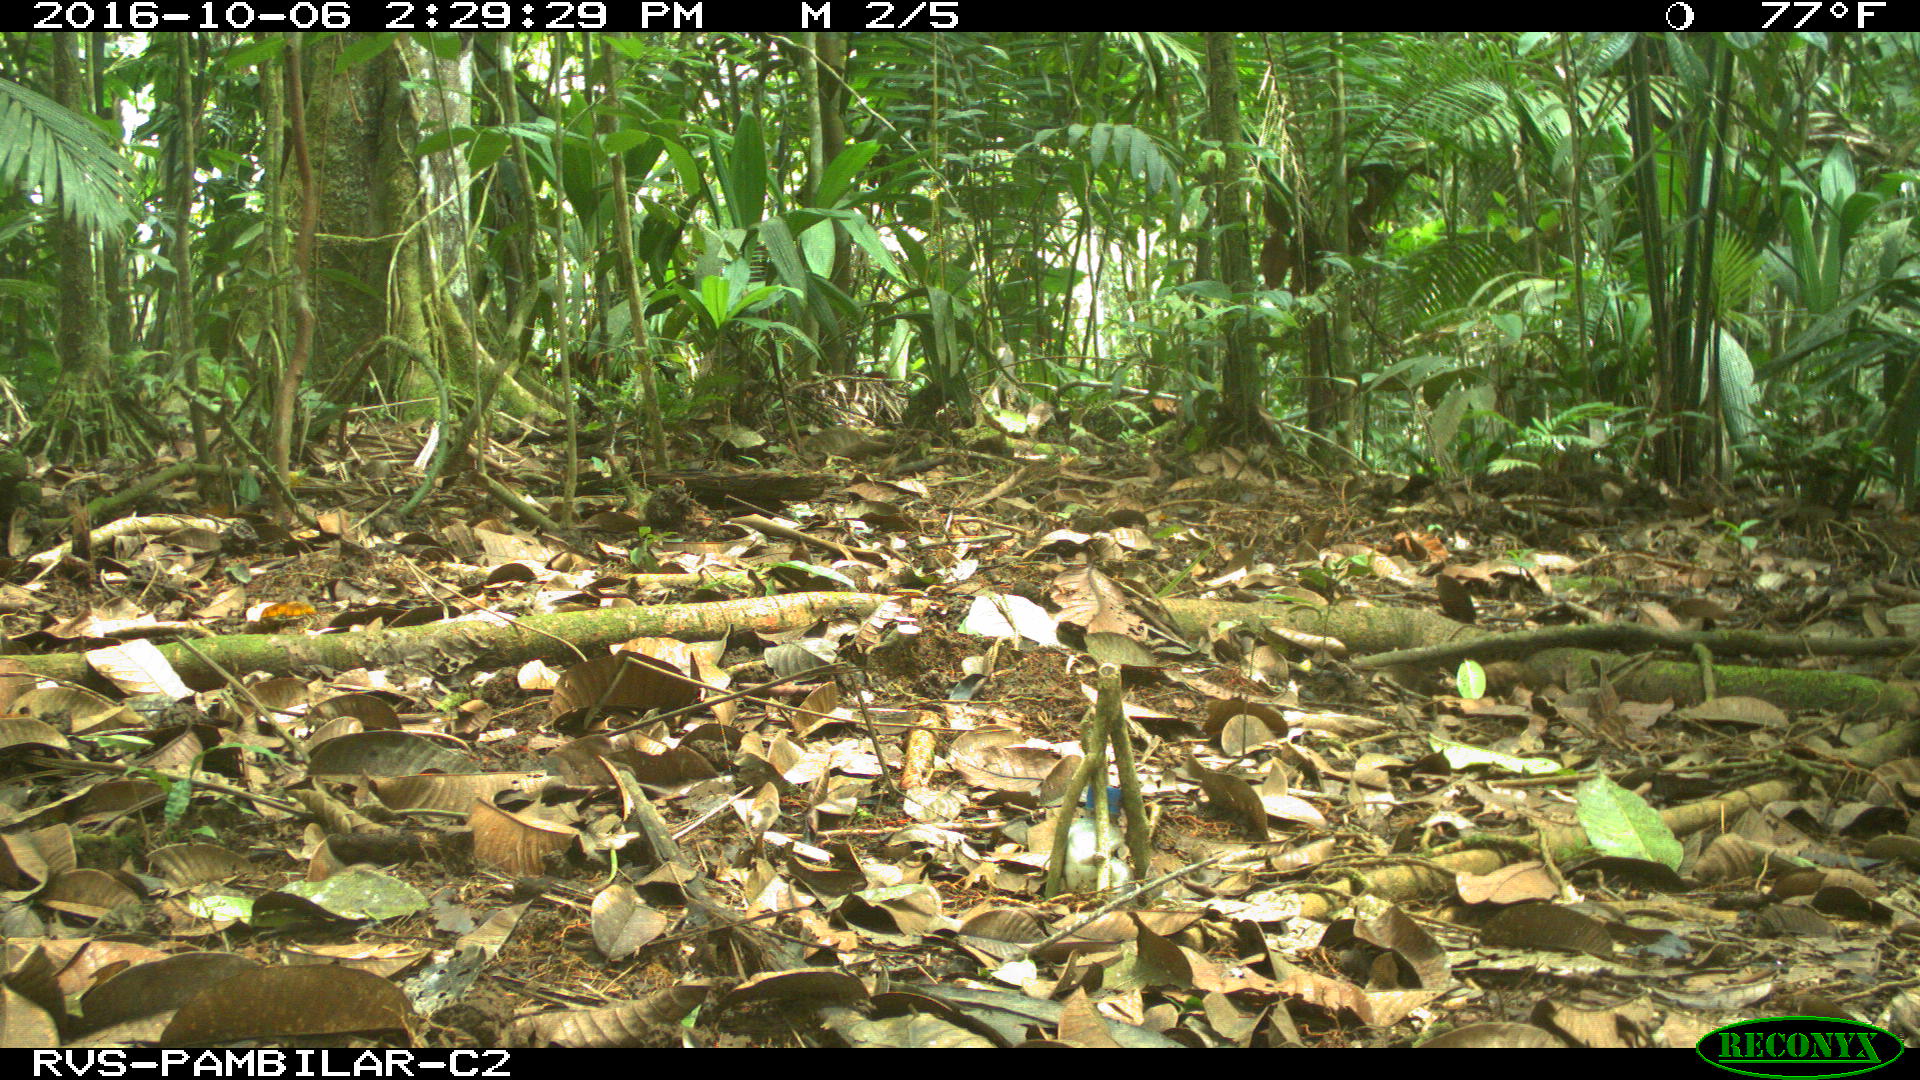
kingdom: Animalia
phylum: Chordata
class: Mammalia
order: Rodentia
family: Dasyproctidae
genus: Dasyprocta
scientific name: Dasyprocta punctata
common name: Central american agouti
